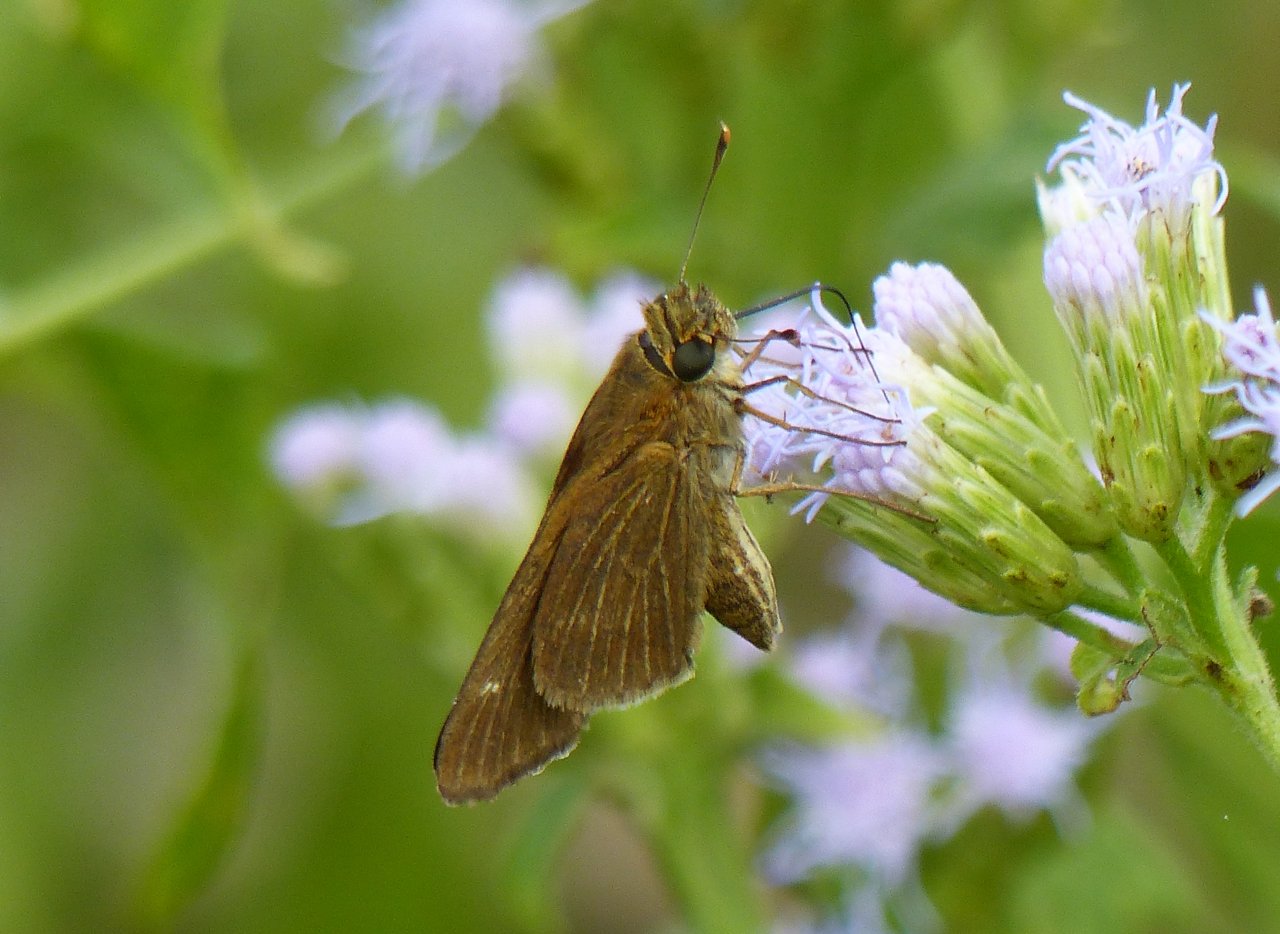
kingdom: Animalia
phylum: Arthropoda
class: Insecta
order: Lepidoptera
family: Hesperiidae
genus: Panoquina
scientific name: Panoquina ocola
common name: Ocola Skipper
